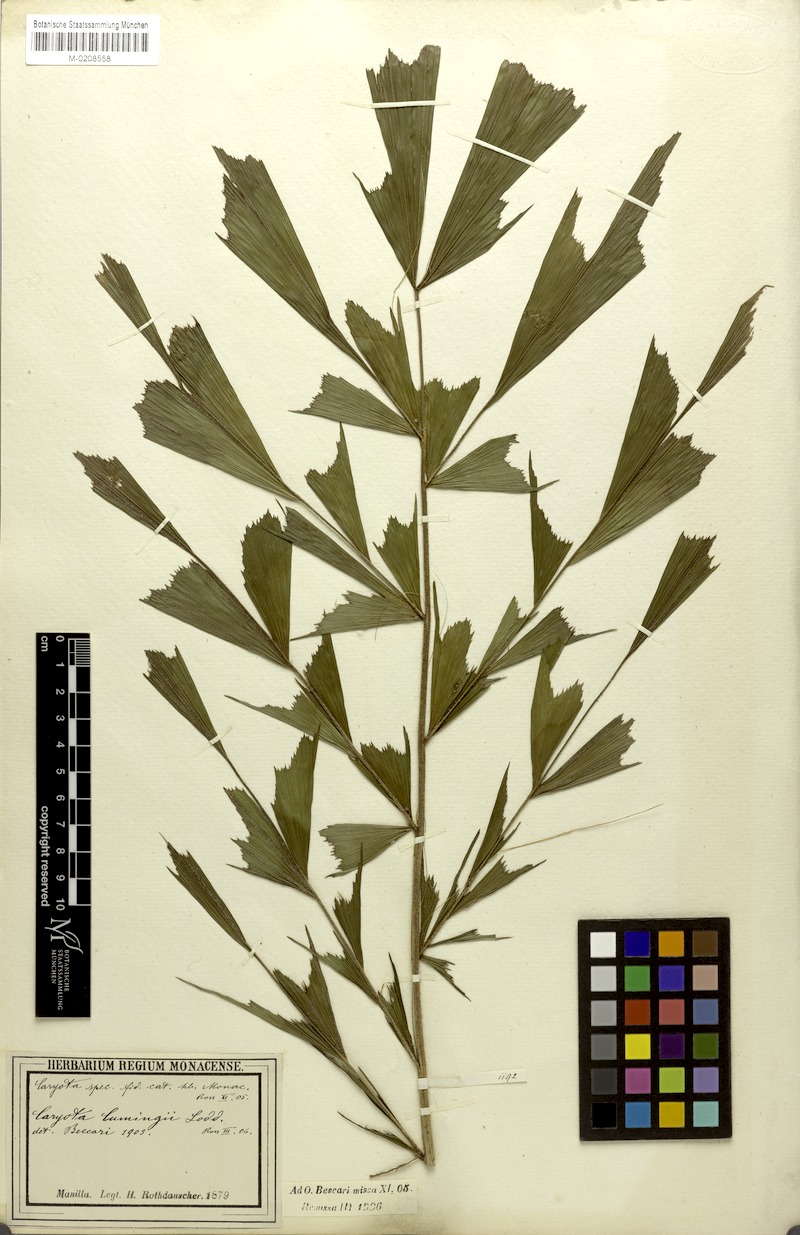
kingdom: Plantae
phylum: Tracheophyta
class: Liliopsida
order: Arecales
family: Arecaceae
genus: Caryota
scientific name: Caryota cumingii
